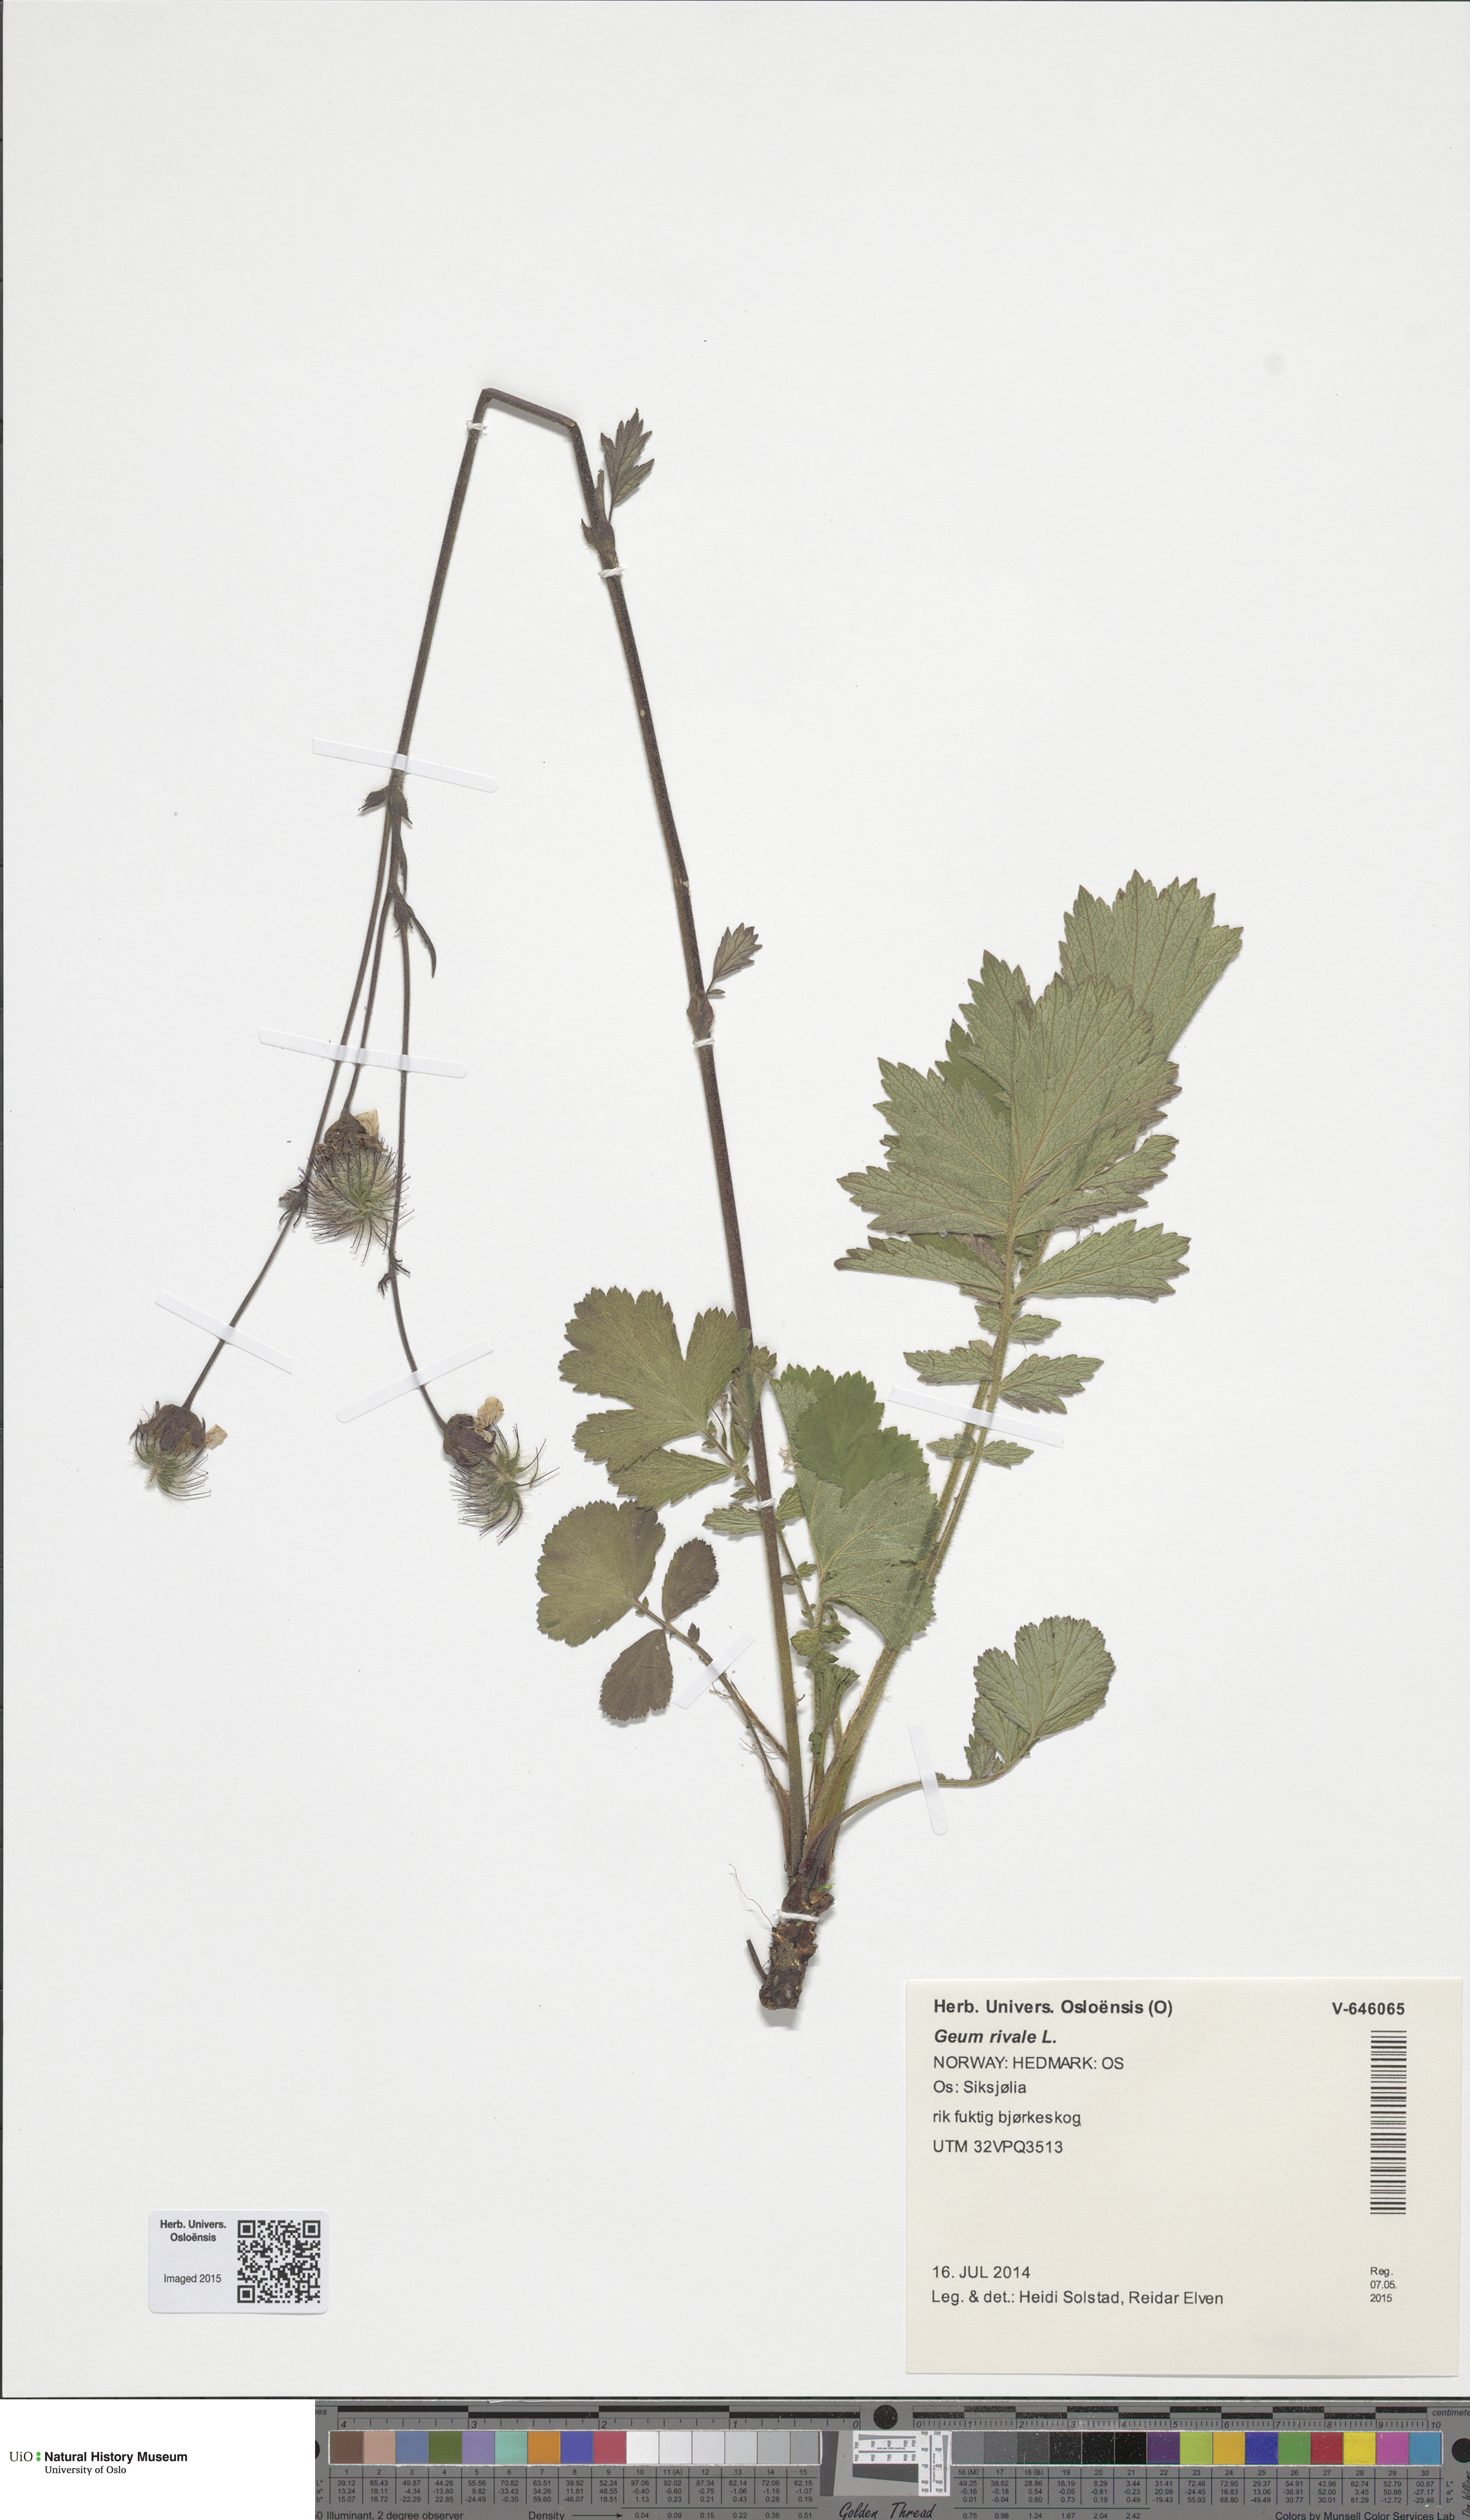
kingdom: Plantae
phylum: Tracheophyta
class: Magnoliopsida
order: Rosales
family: Rosaceae
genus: Geum
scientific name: Geum rivale
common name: Water avens
